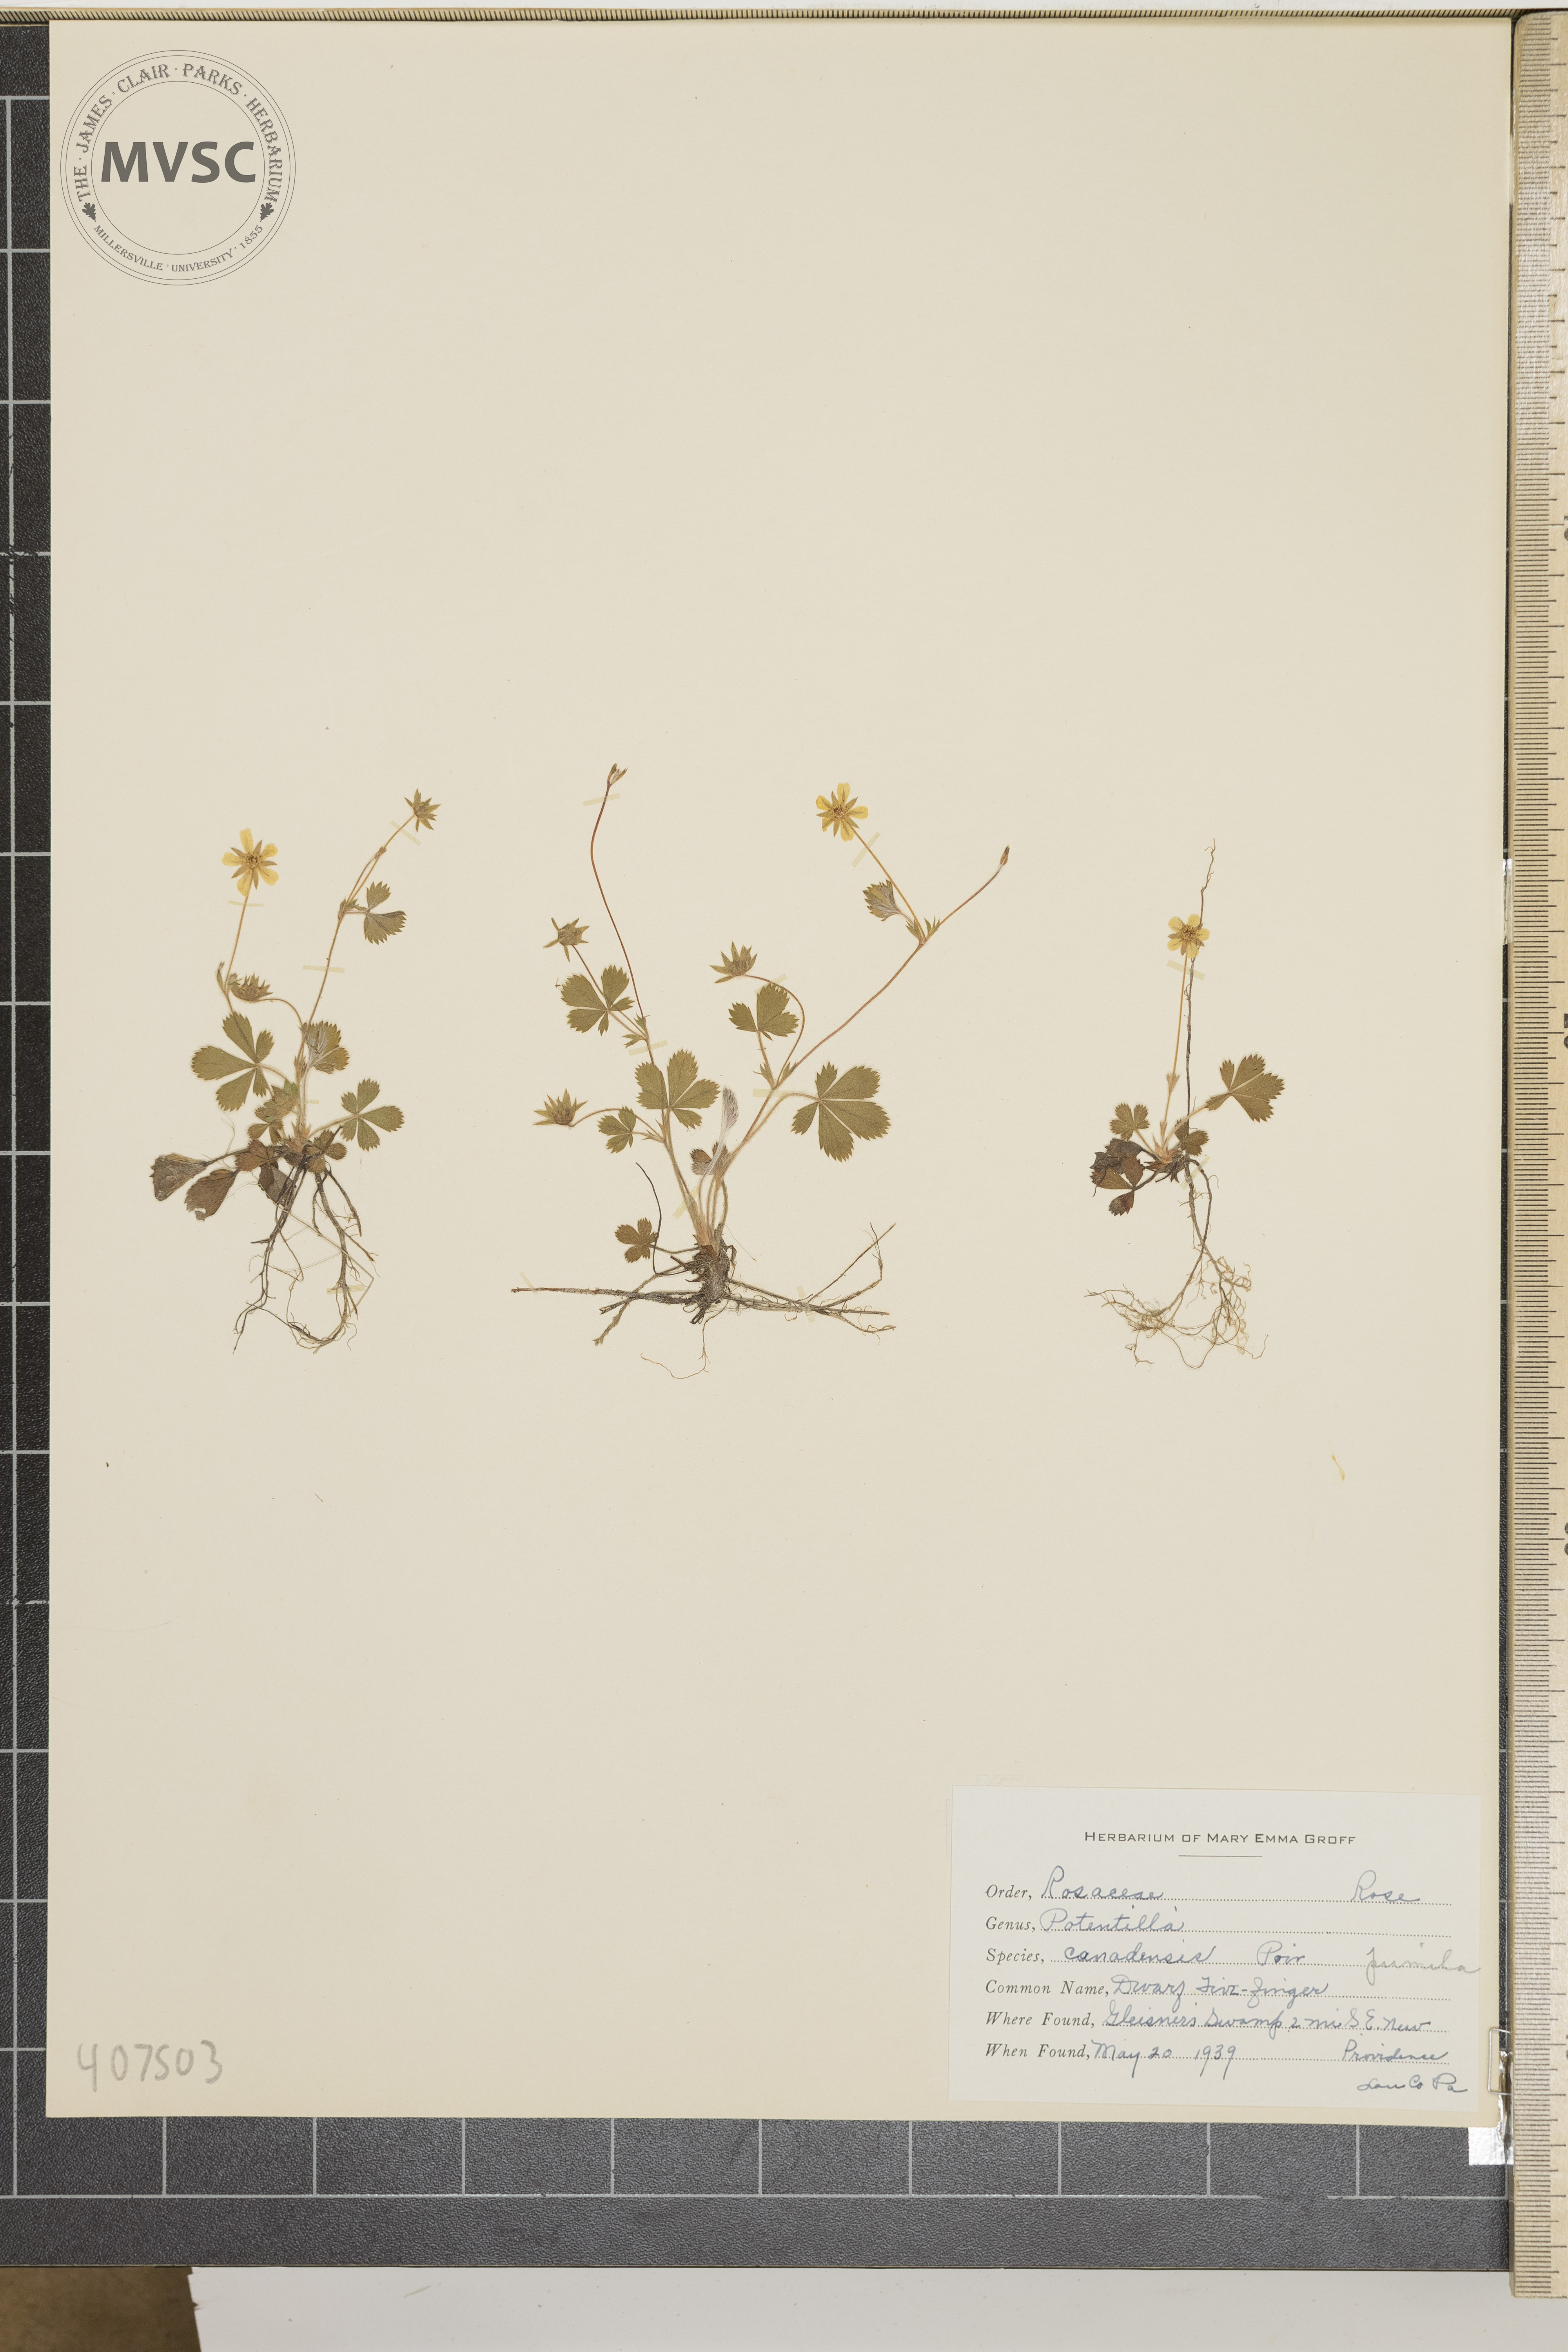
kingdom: Plantae
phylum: Tracheophyta
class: Magnoliopsida
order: Rosales
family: Rosaceae
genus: Potentilla
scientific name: Potentilla canadensis
